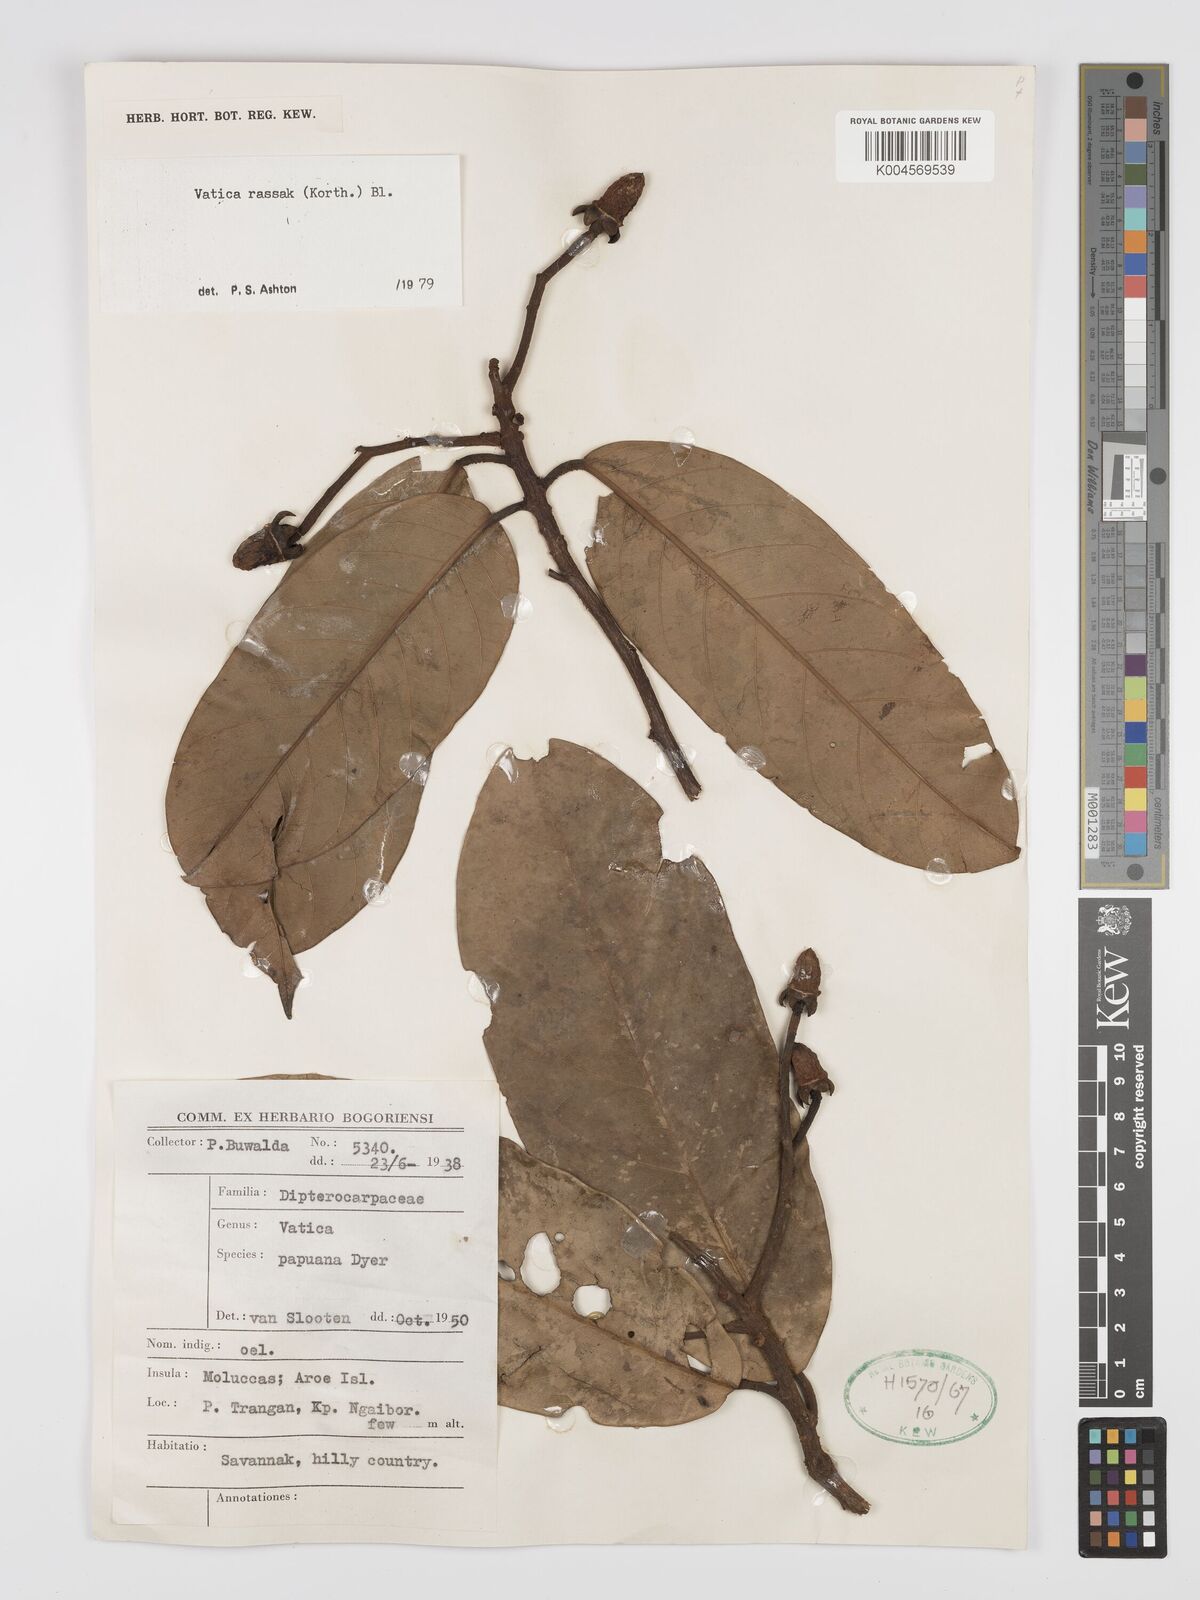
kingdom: Plantae
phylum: Tracheophyta
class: Magnoliopsida
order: Malvales
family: Dipterocarpaceae
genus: Vatica
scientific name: Vatica rassak
